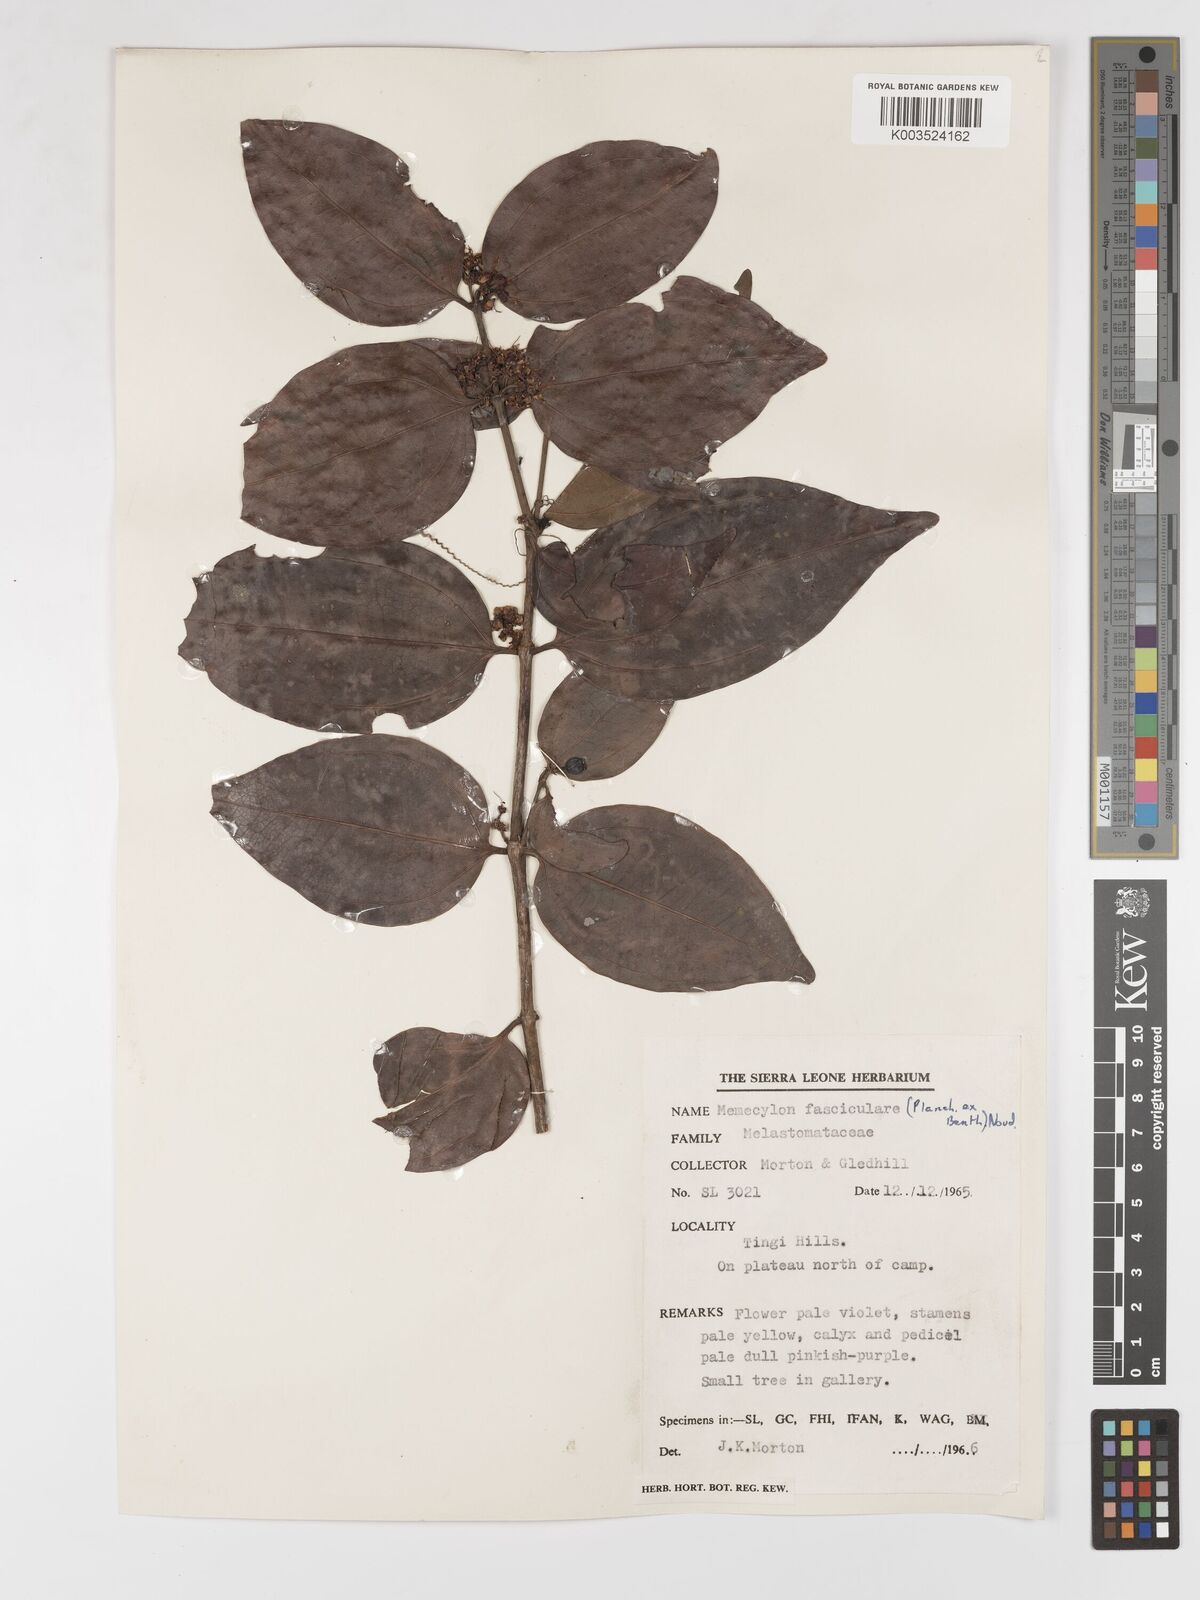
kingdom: Plantae
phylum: Tracheophyta
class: Magnoliopsida
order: Myrtales
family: Melastomataceae
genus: Warneckea
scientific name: Warneckea fascicularis
